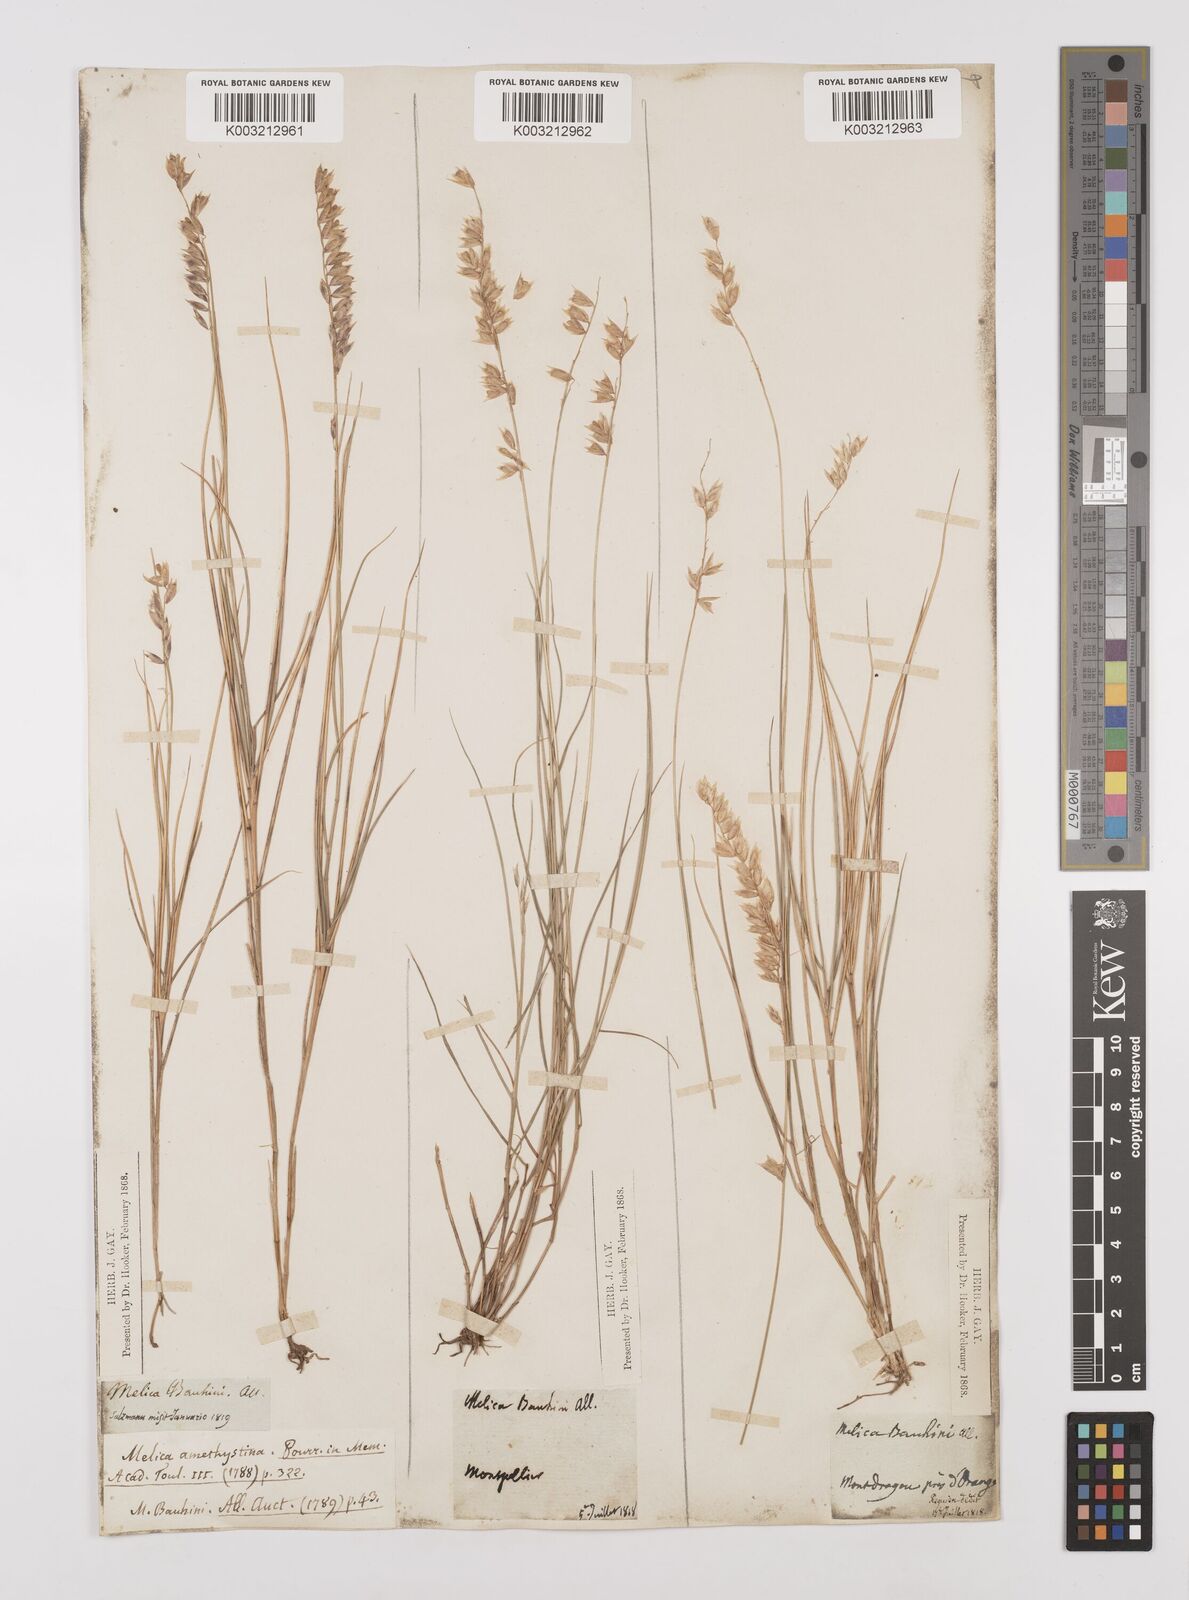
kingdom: Plantae
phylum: Tracheophyta
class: Liliopsida
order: Poales
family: Poaceae
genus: Melica
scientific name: Melica amethystina
